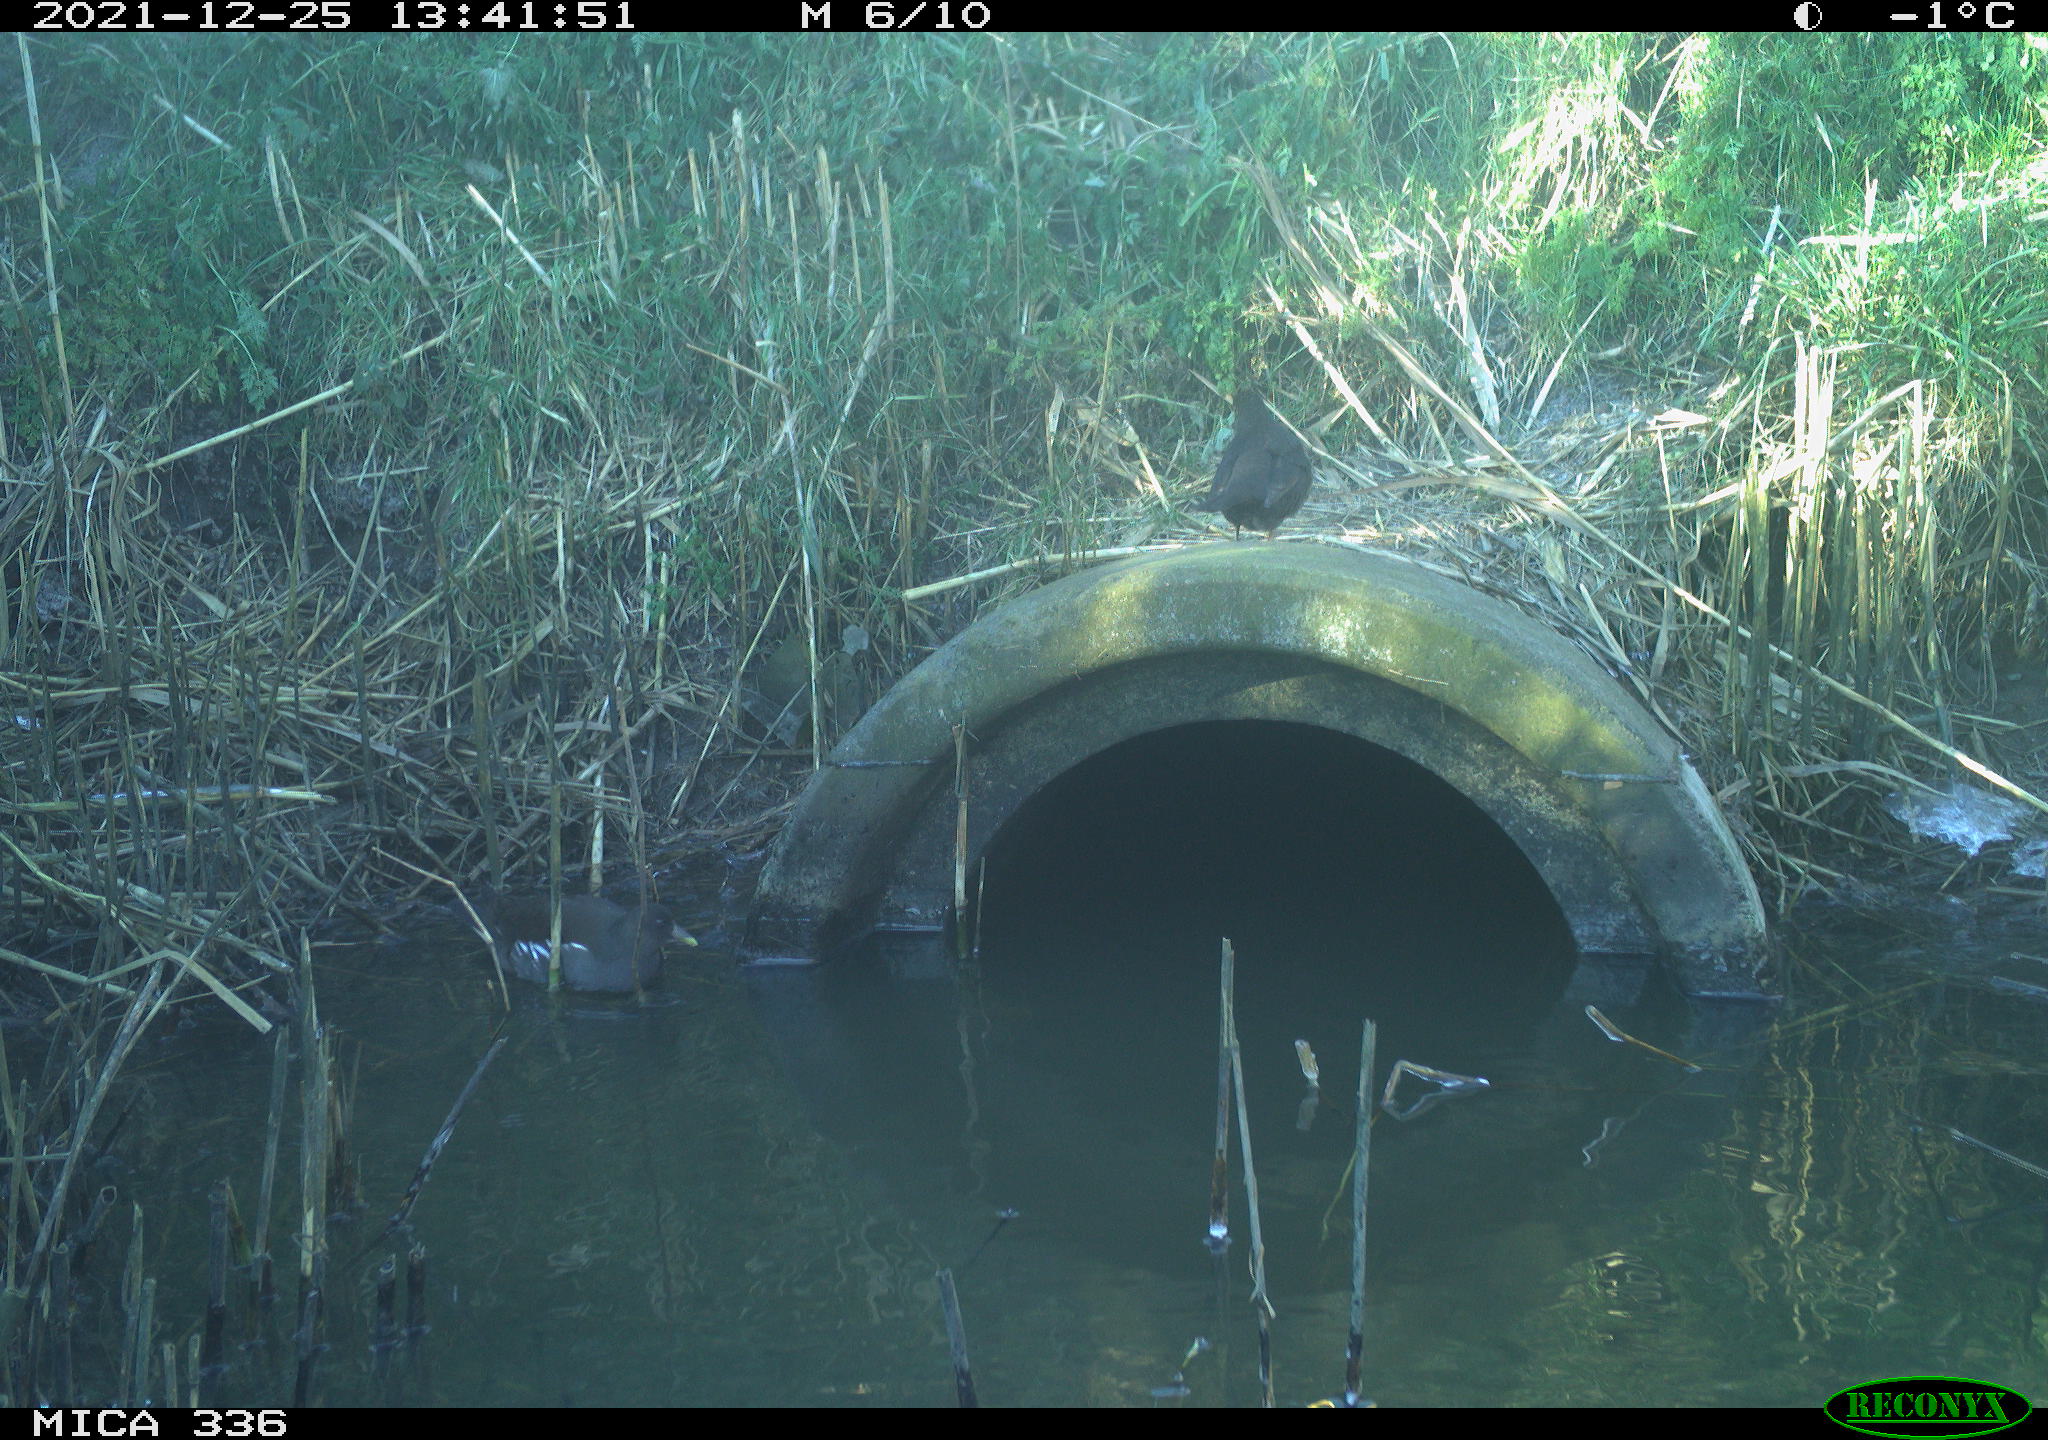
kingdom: Animalia
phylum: Chordata
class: Aves
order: Passeriformes
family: Turdidae
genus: Turdus
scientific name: Turdus merula
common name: Common blackbird
